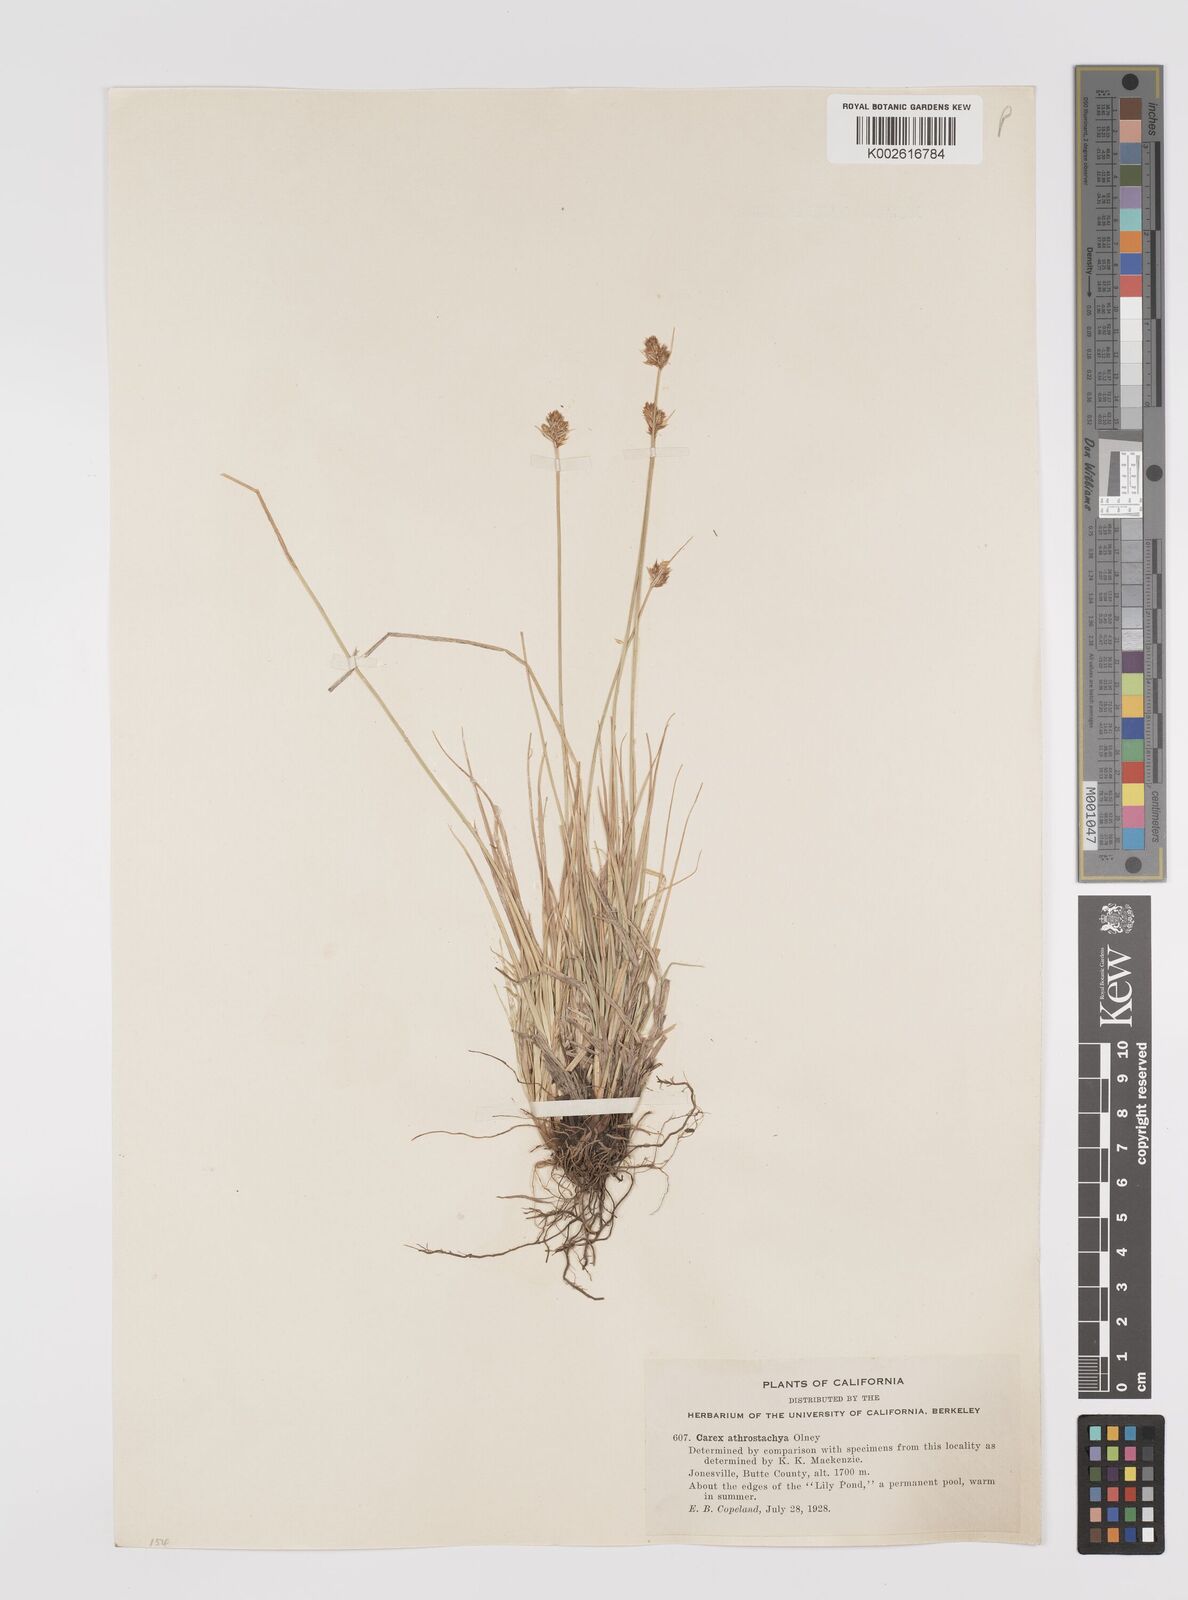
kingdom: Plantae
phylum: Tracheophyta
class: Liliopsida
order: Poales
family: Cyperaceae
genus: Carex
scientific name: Carex athrostachya
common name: Slenderbeak sedge
